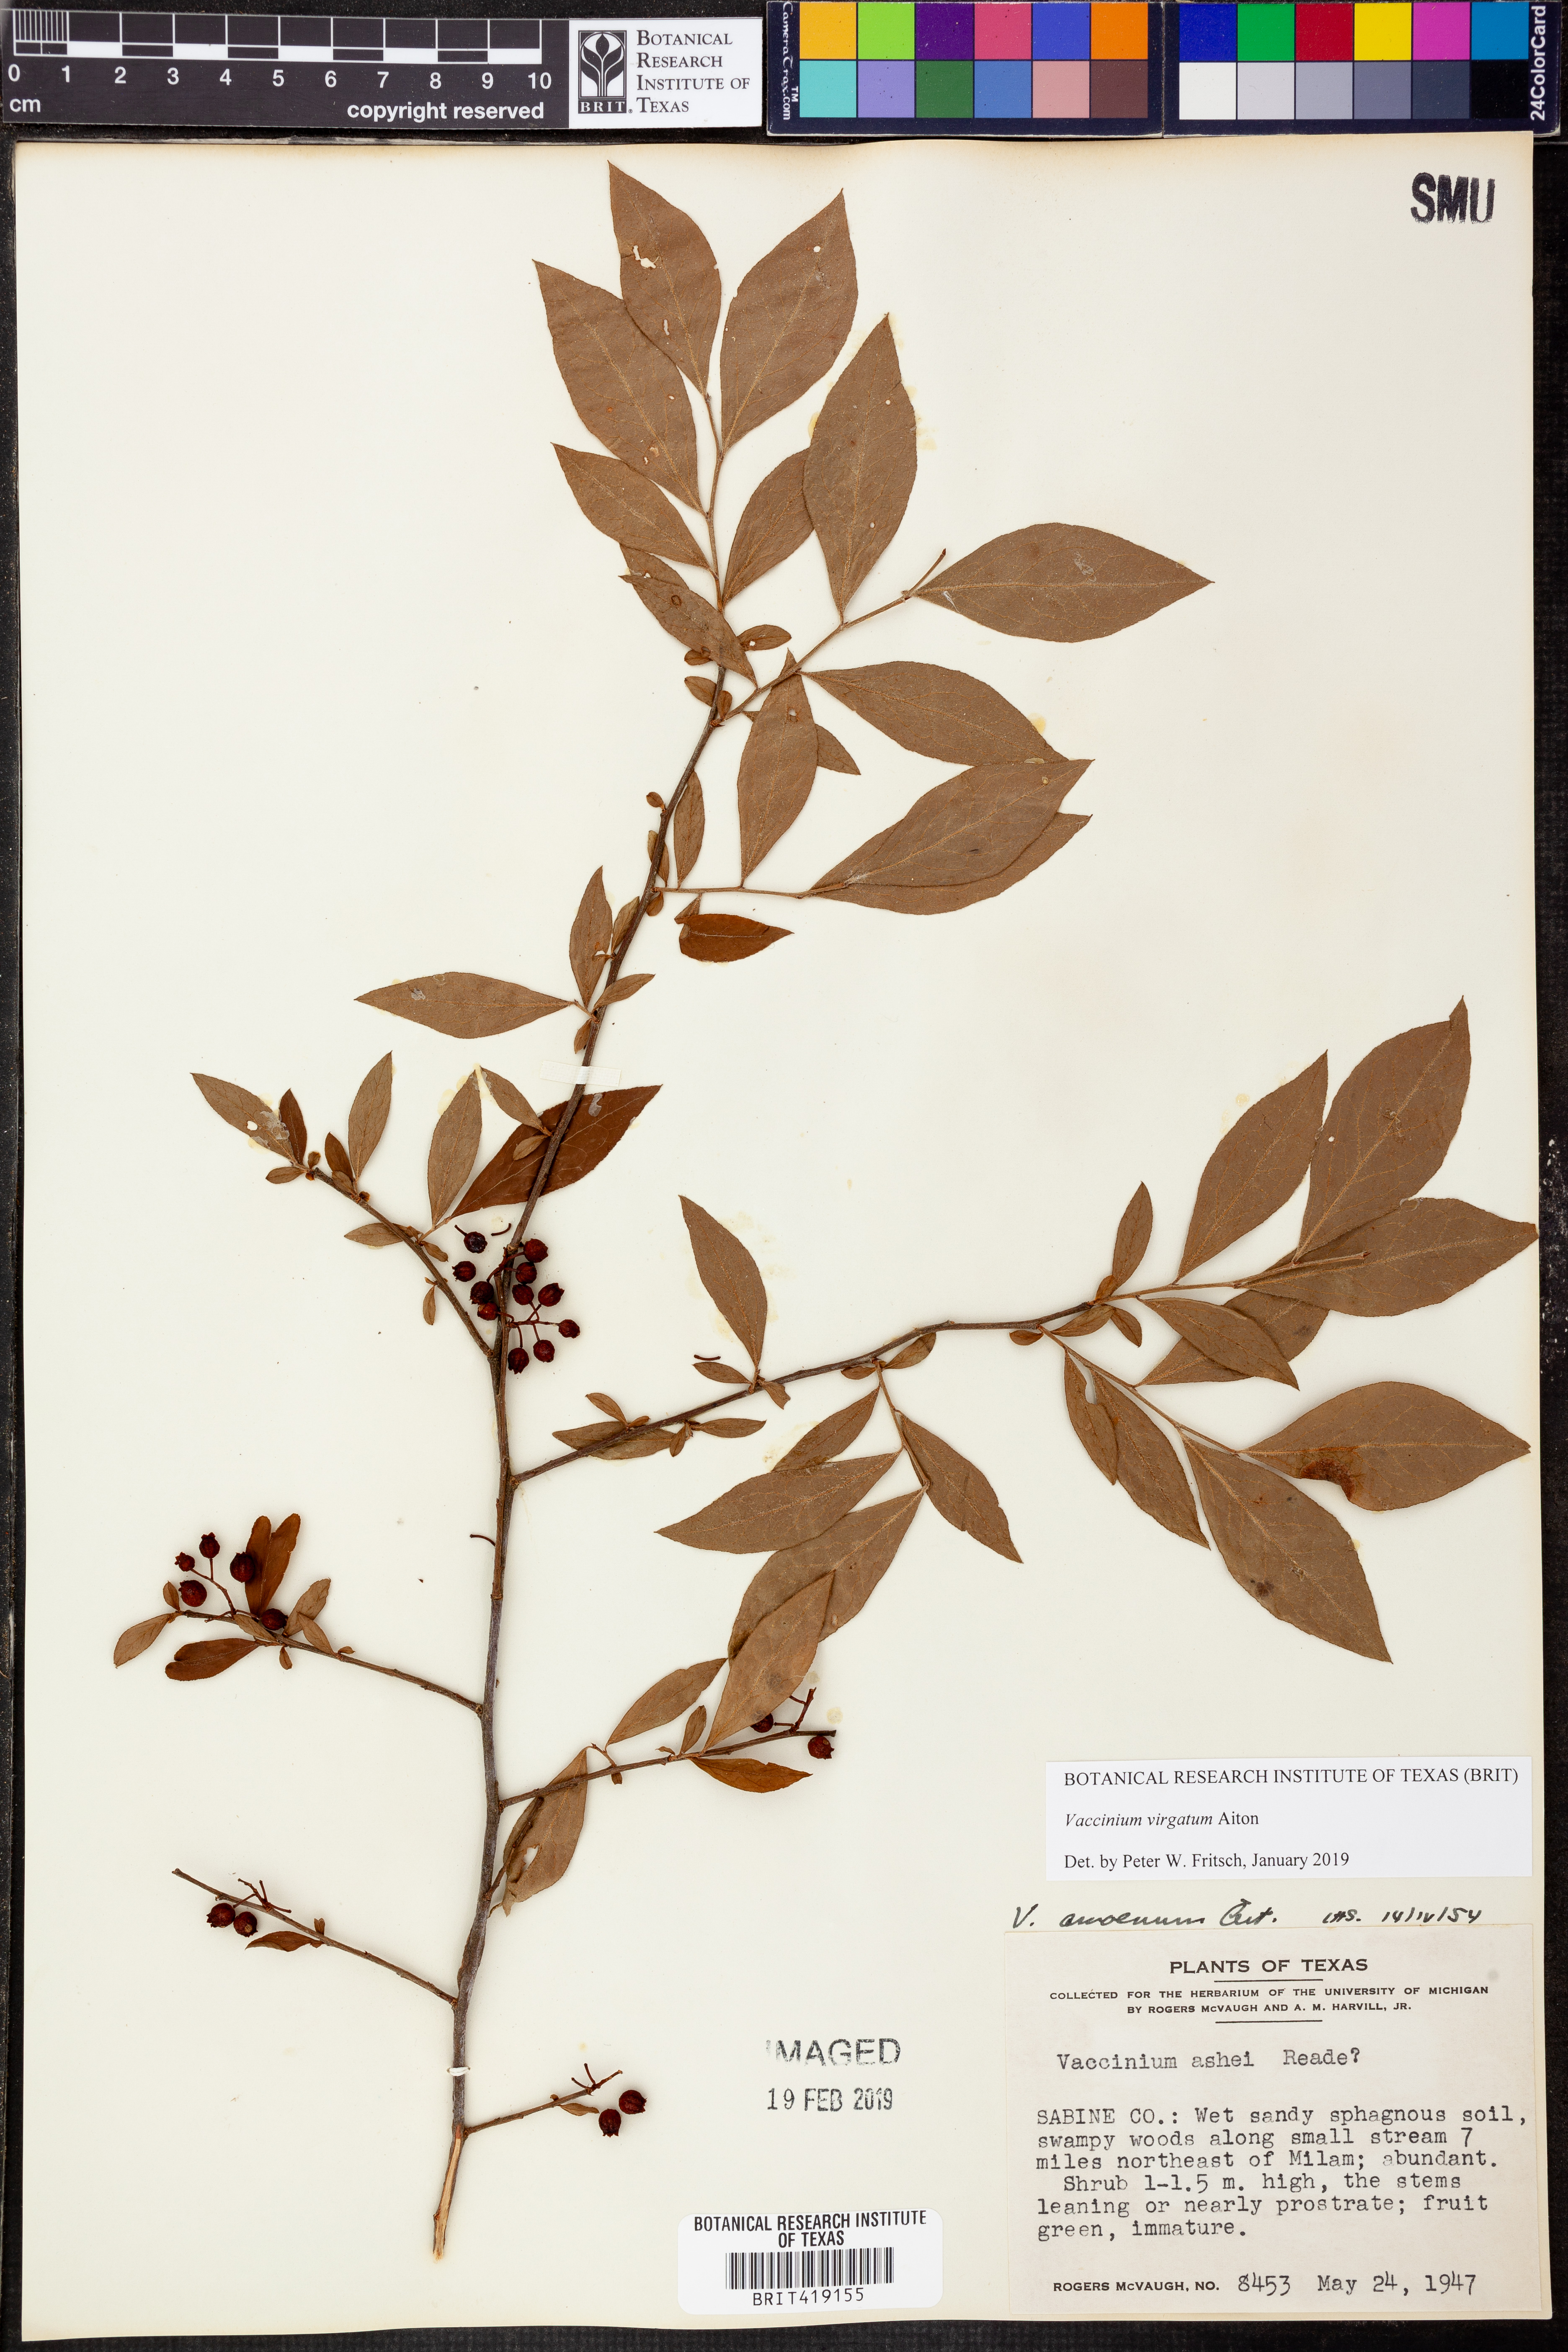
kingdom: Plantae
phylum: Tracheophyta
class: Magnoliopsida
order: Ericales
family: Ericaceae
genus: Vaccinium
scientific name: Vaccinium corymbosum
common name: Blueberry
